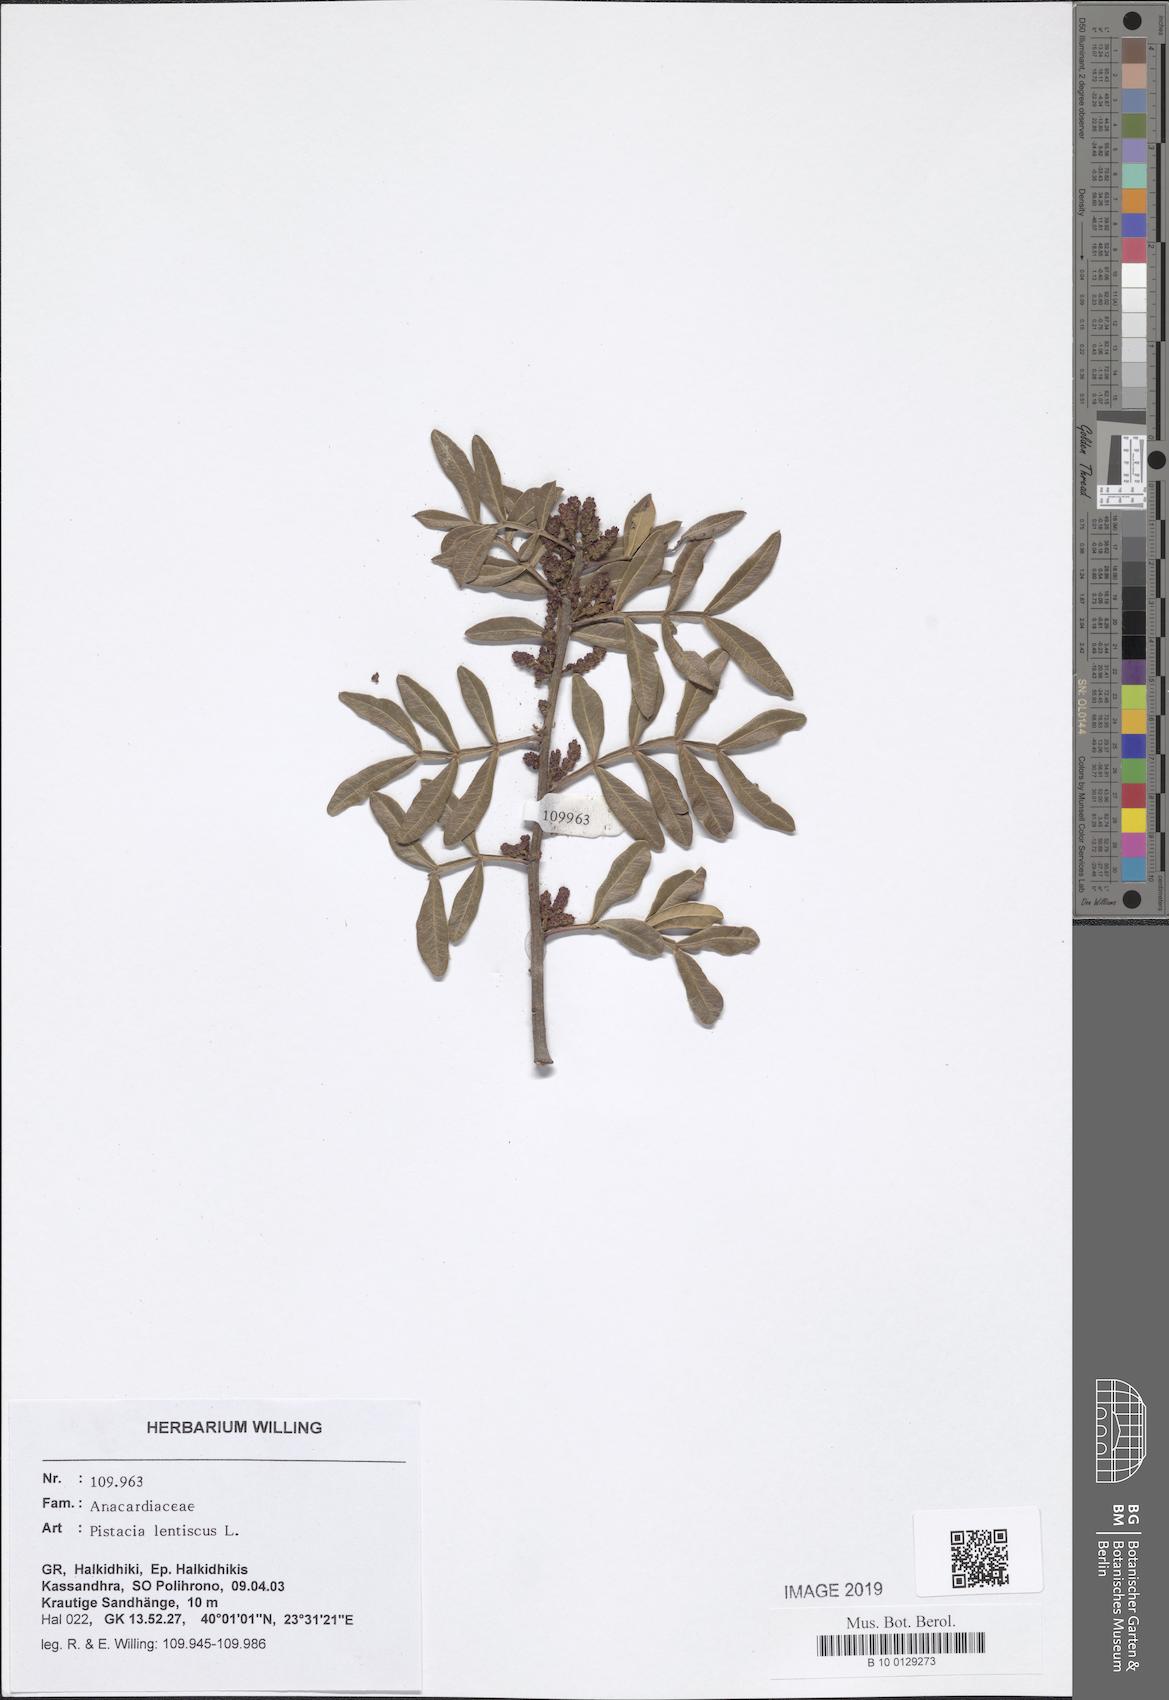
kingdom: Plantae
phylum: Tracheophyta
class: Magnoliopsida
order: Sapindales
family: Anacardiaceae
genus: Pistacia
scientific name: Pistacia lentiscus
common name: Lentisk
